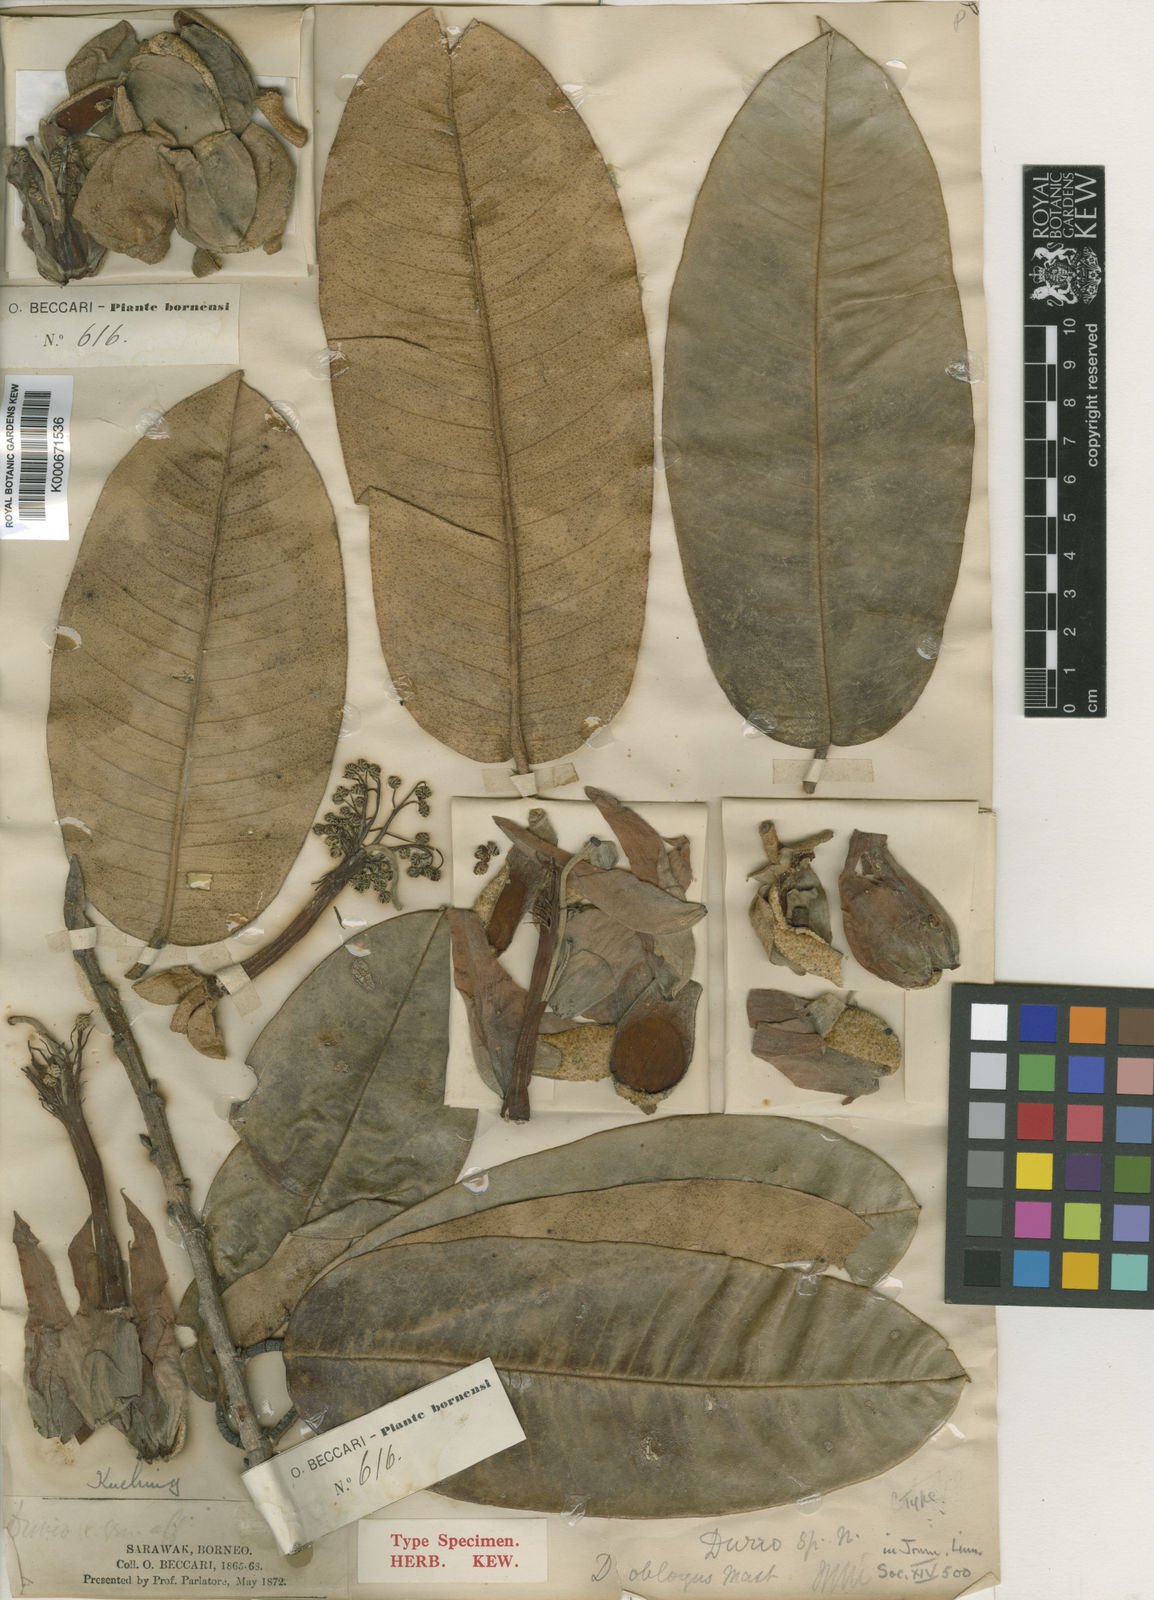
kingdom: Plantae
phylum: Tracheophyta
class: Magnoliopsida
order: Malvales
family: Malvaceae
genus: Durio
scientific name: Durio oblongus
